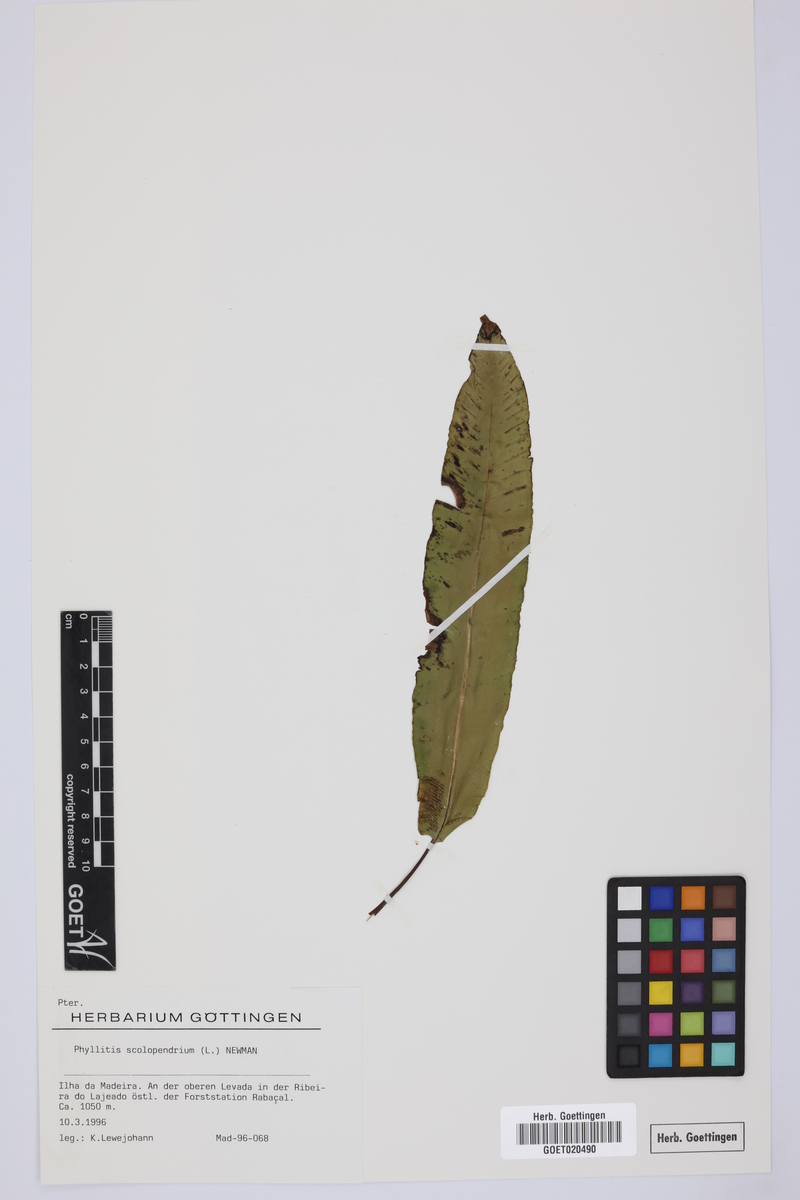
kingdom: Plantae
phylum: Tracheophyta
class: Polypodiopsida
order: Polypodiales
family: Aspleniaceae
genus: Asplenium
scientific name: Asplenium scolopendrium
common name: Hart's-tongue fern
